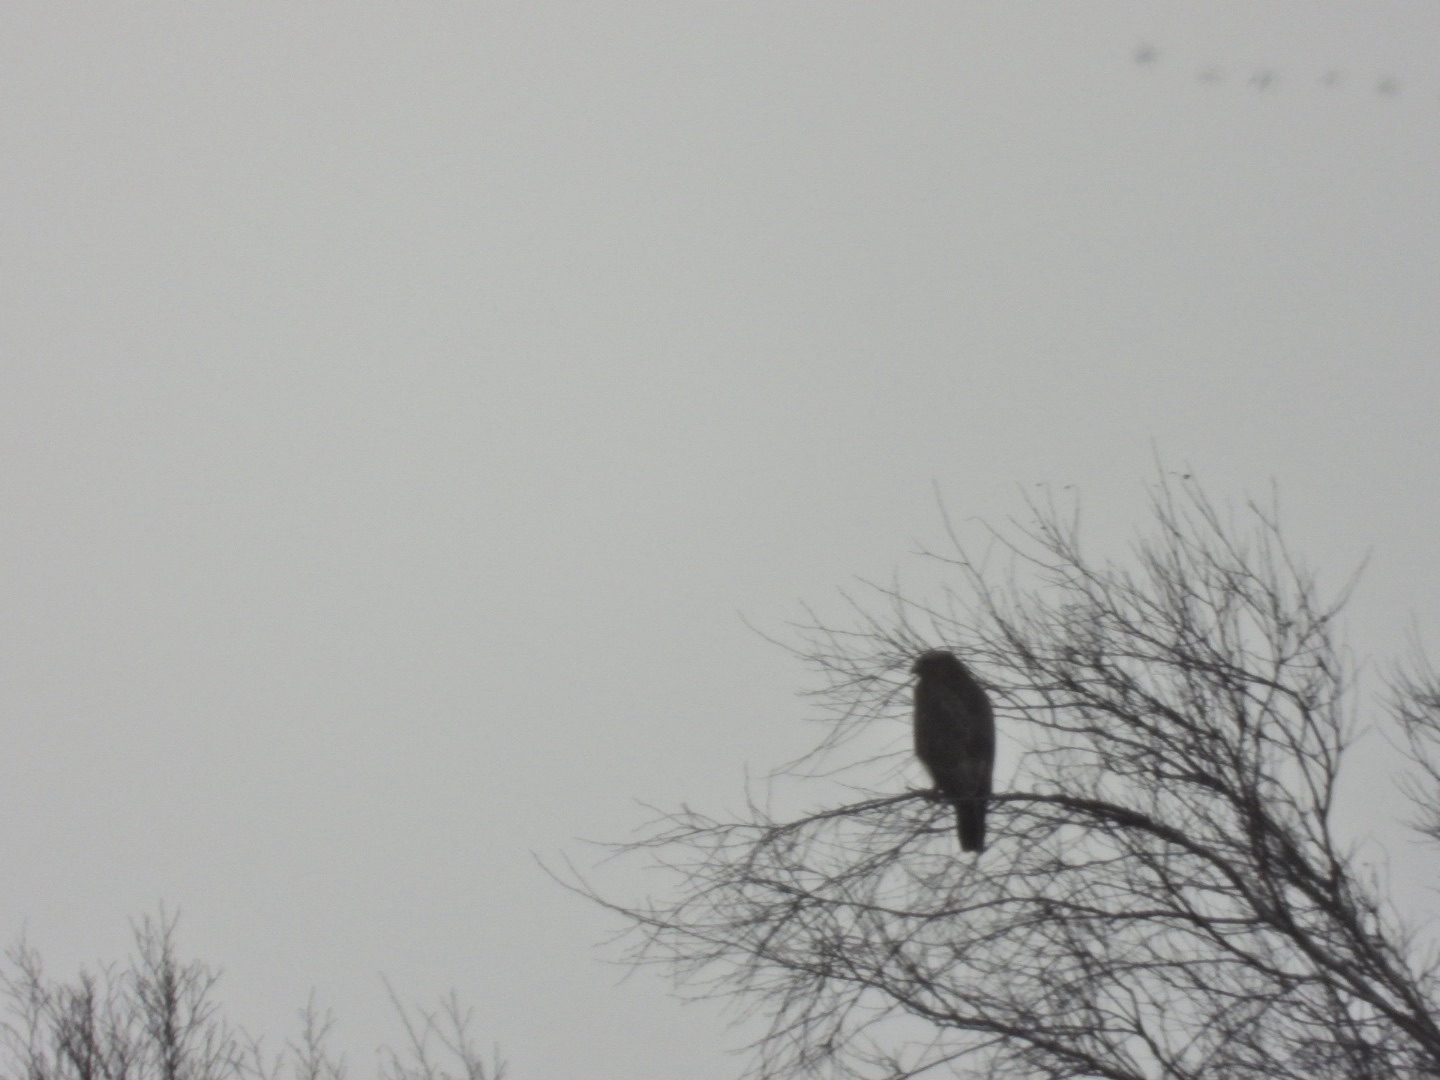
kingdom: Animalia
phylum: Chordata
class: Aves
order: Accipitriformes
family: Accipitridae
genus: Buteo
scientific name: Buteo buteo
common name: Musvåge
